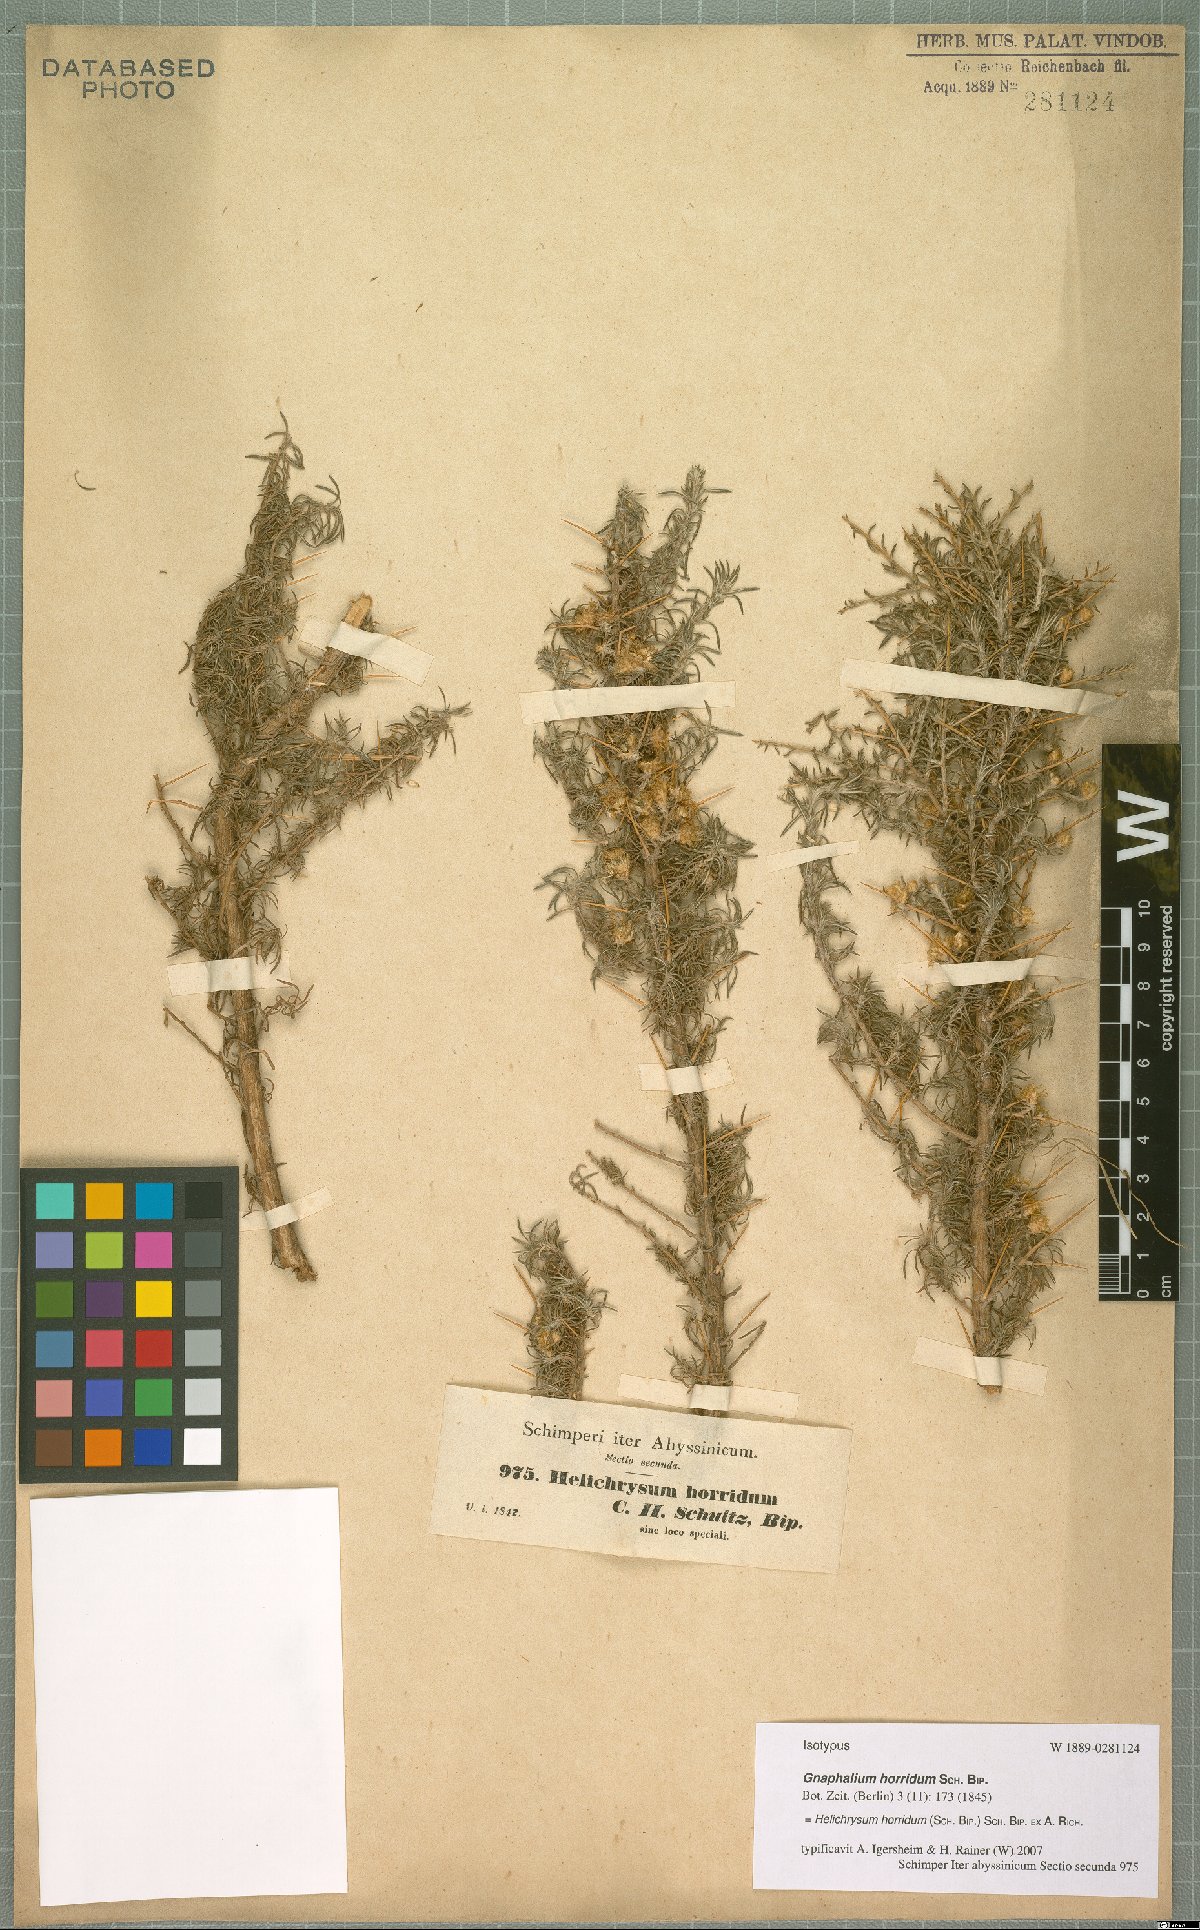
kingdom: Plantae
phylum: Tracheophyta
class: Magnoliopsida
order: Asterales
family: Asteraceae
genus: Helichrysum
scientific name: Helichrysum horridum
